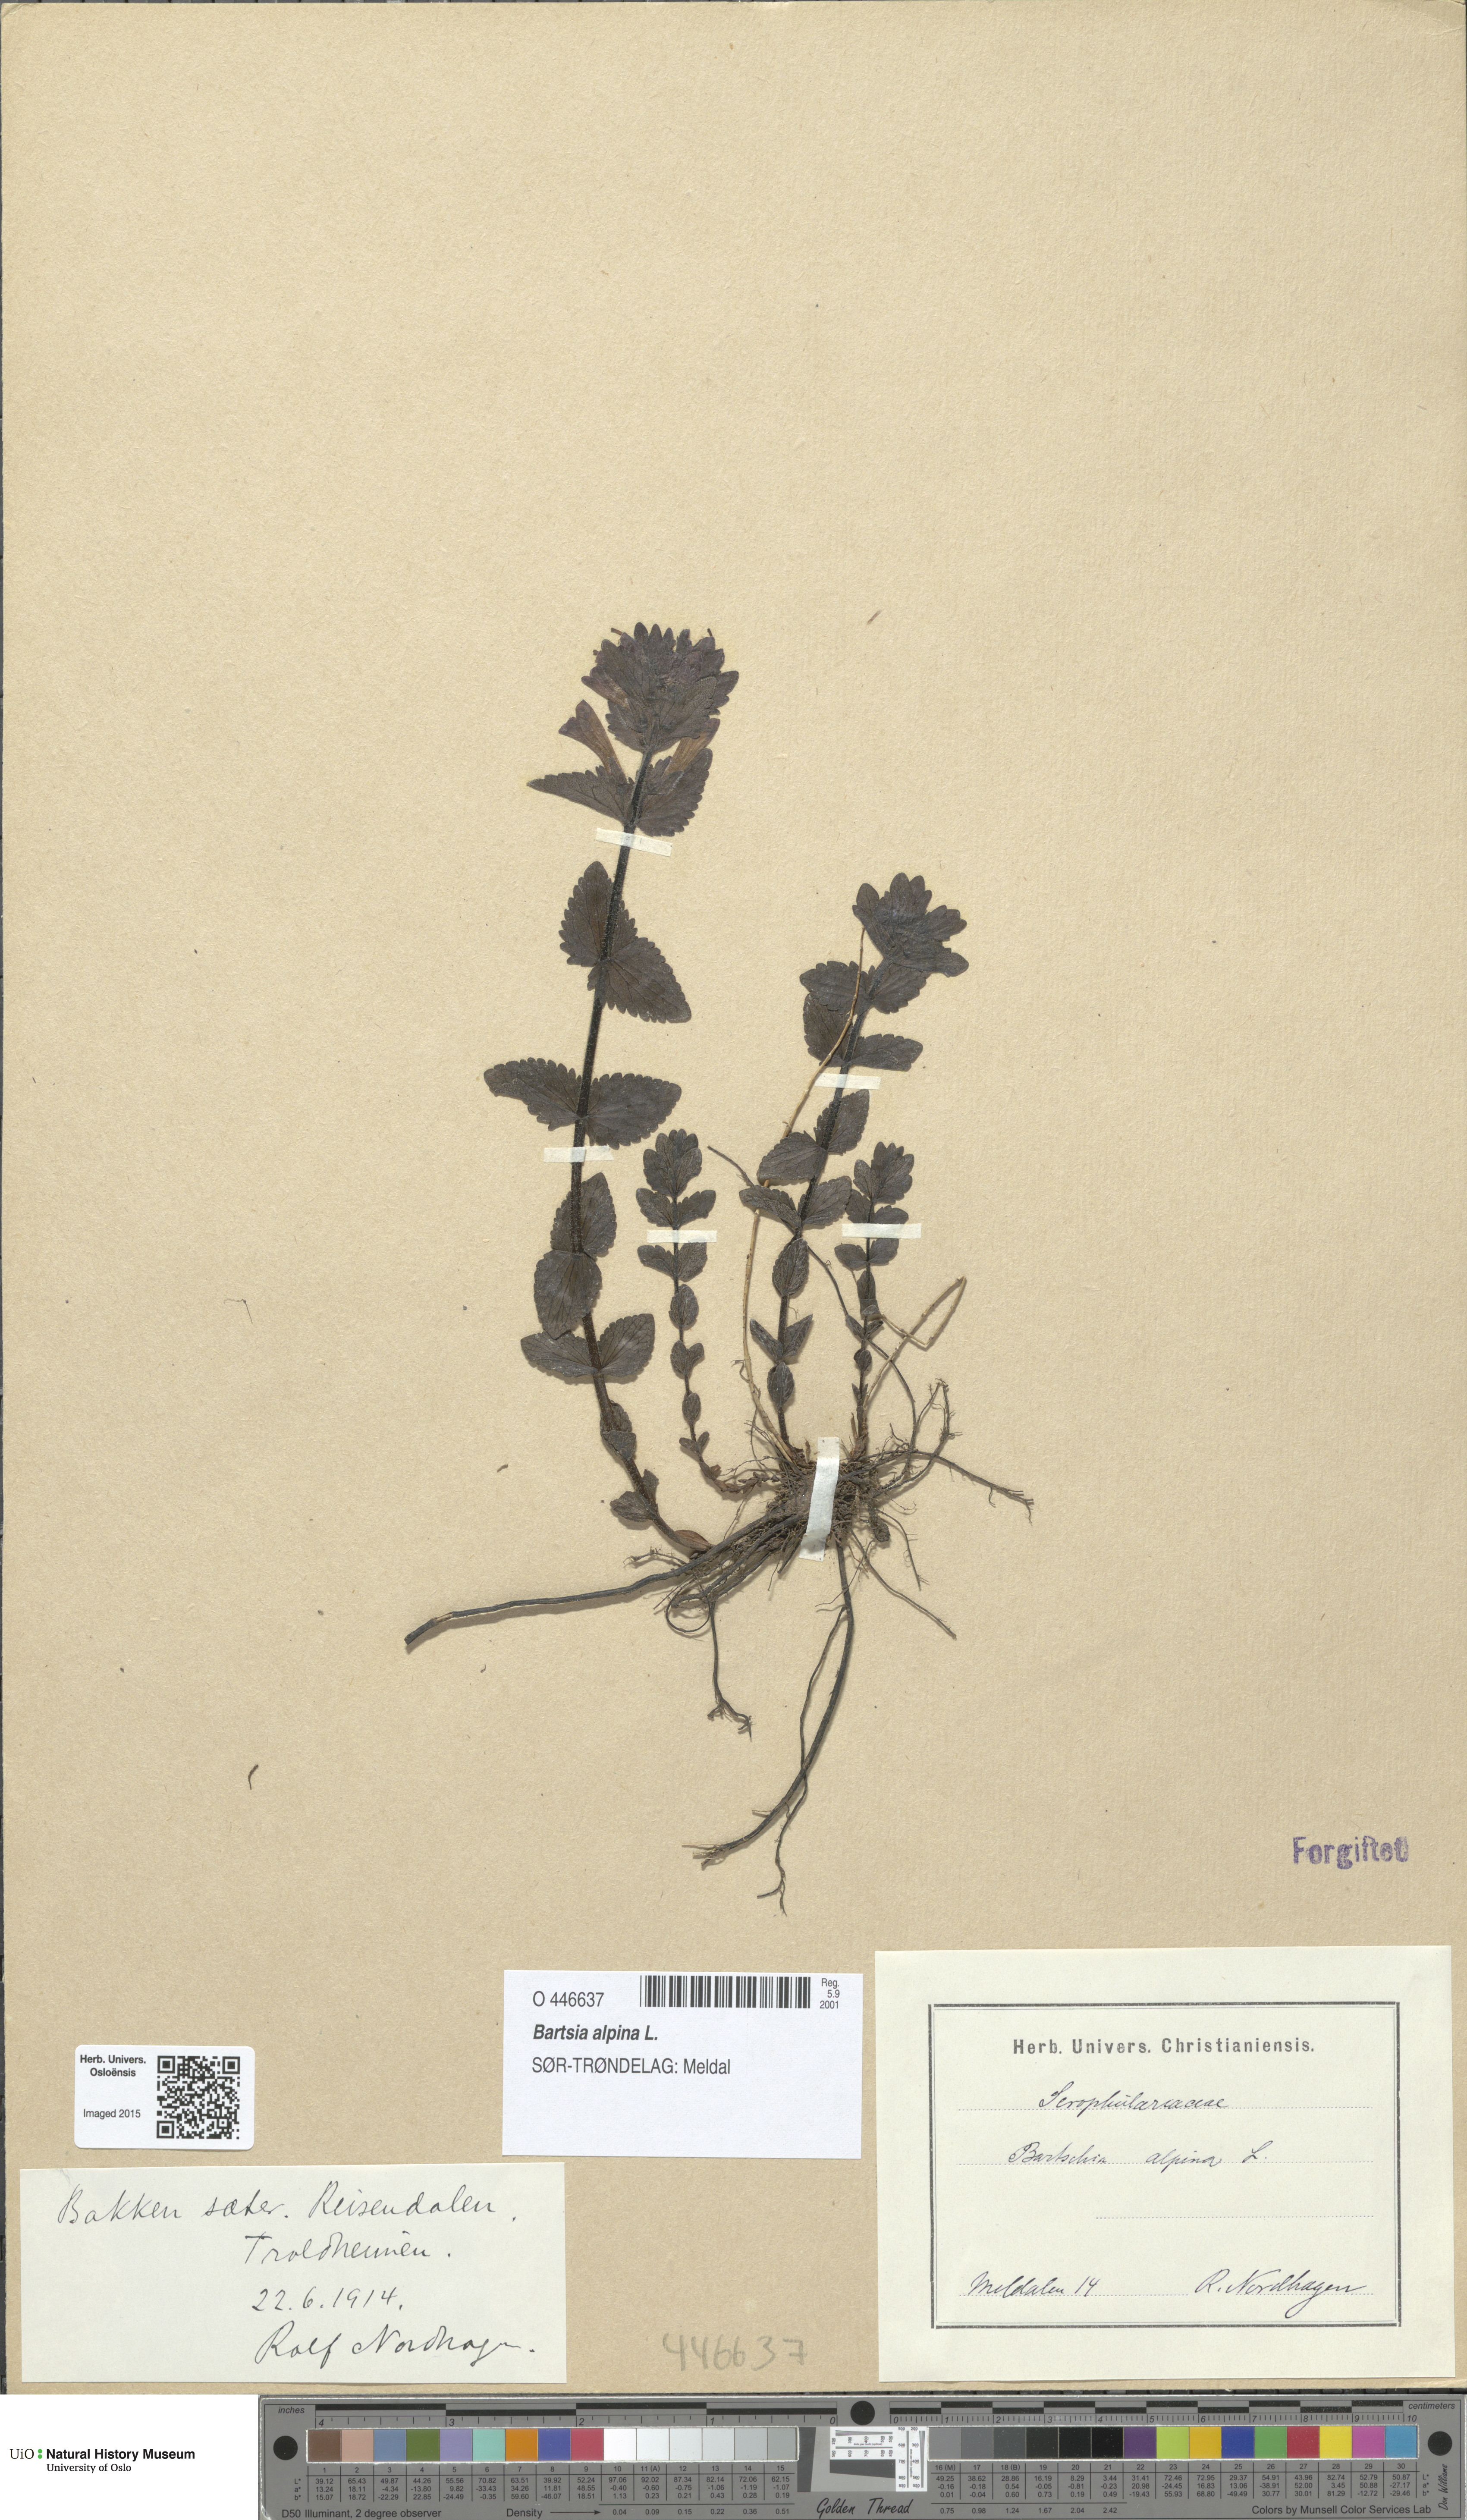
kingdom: Plantae
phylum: Tracheophyta
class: Magnoliopsida
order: Lamiales
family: Orobanchaceae
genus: Bartsia
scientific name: Bartsia alpina
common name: Alpine bartsia
